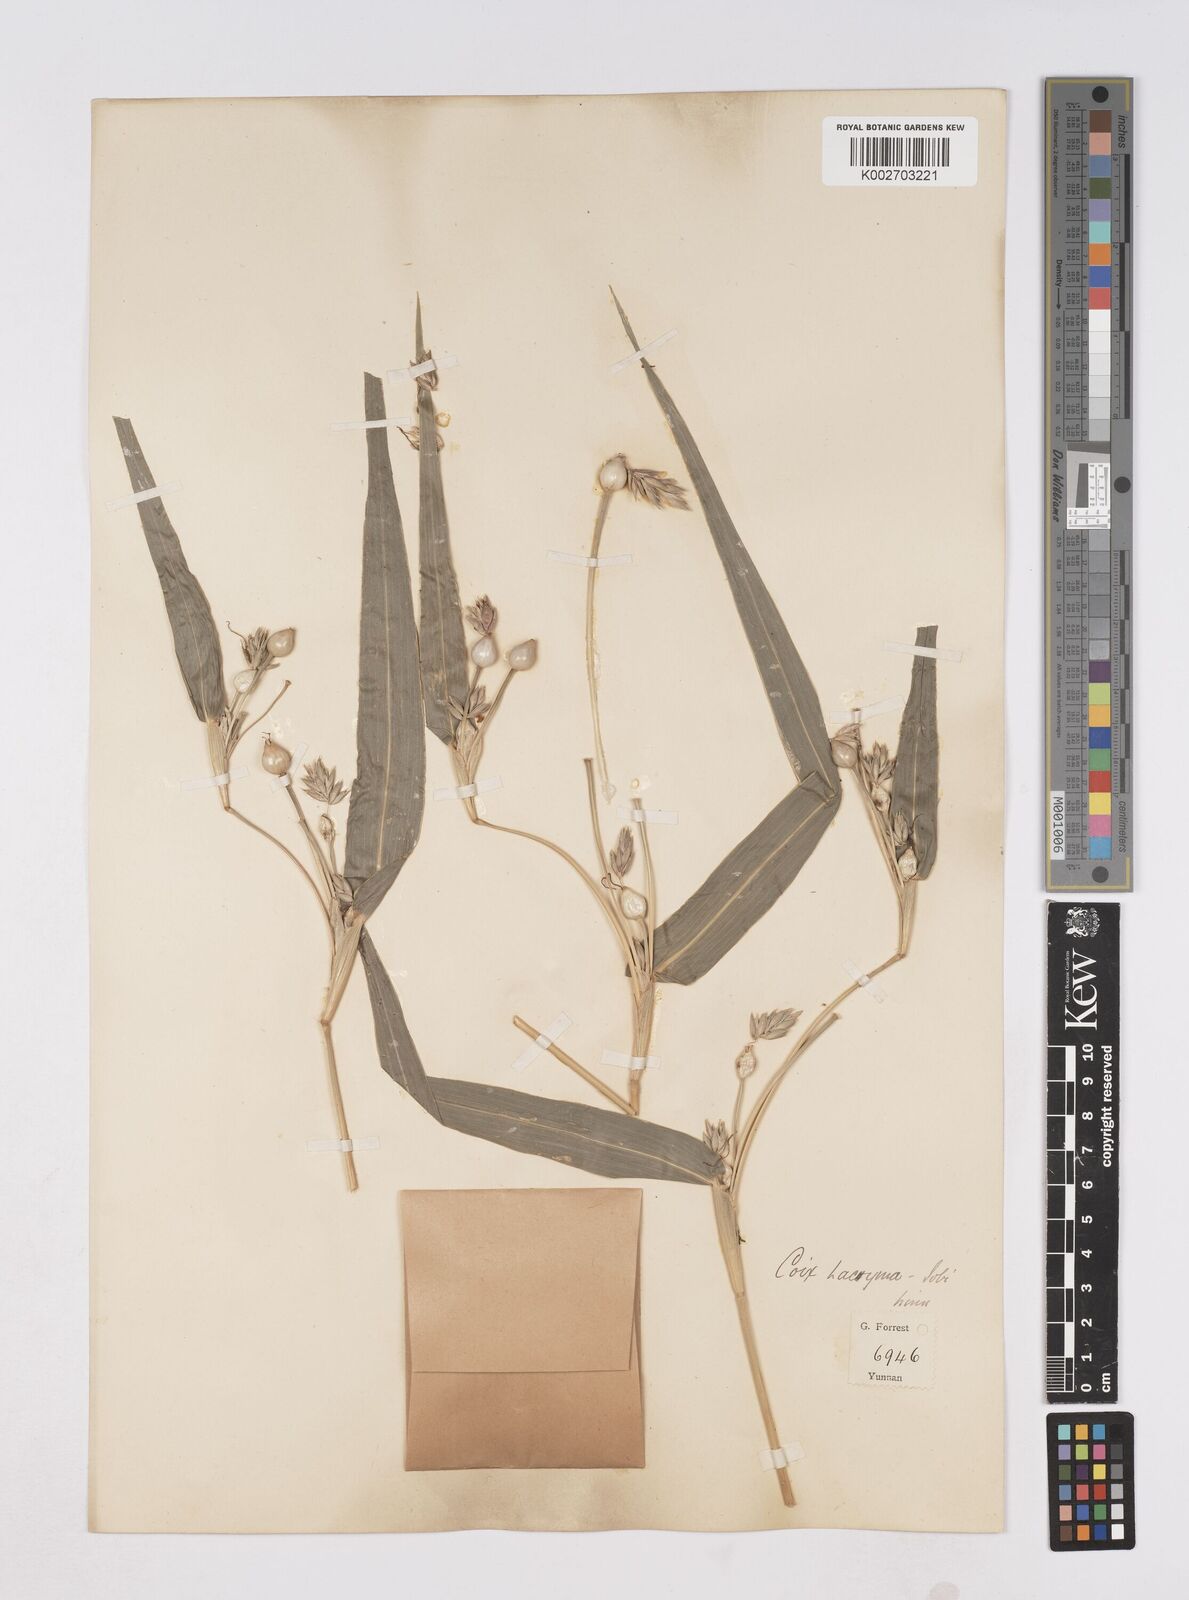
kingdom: Plantae
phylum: Tracheophyta
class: Liliopsida
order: Poales
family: Poaceae
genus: Coix
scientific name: Coix lacryma-jobi
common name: Job's tears
